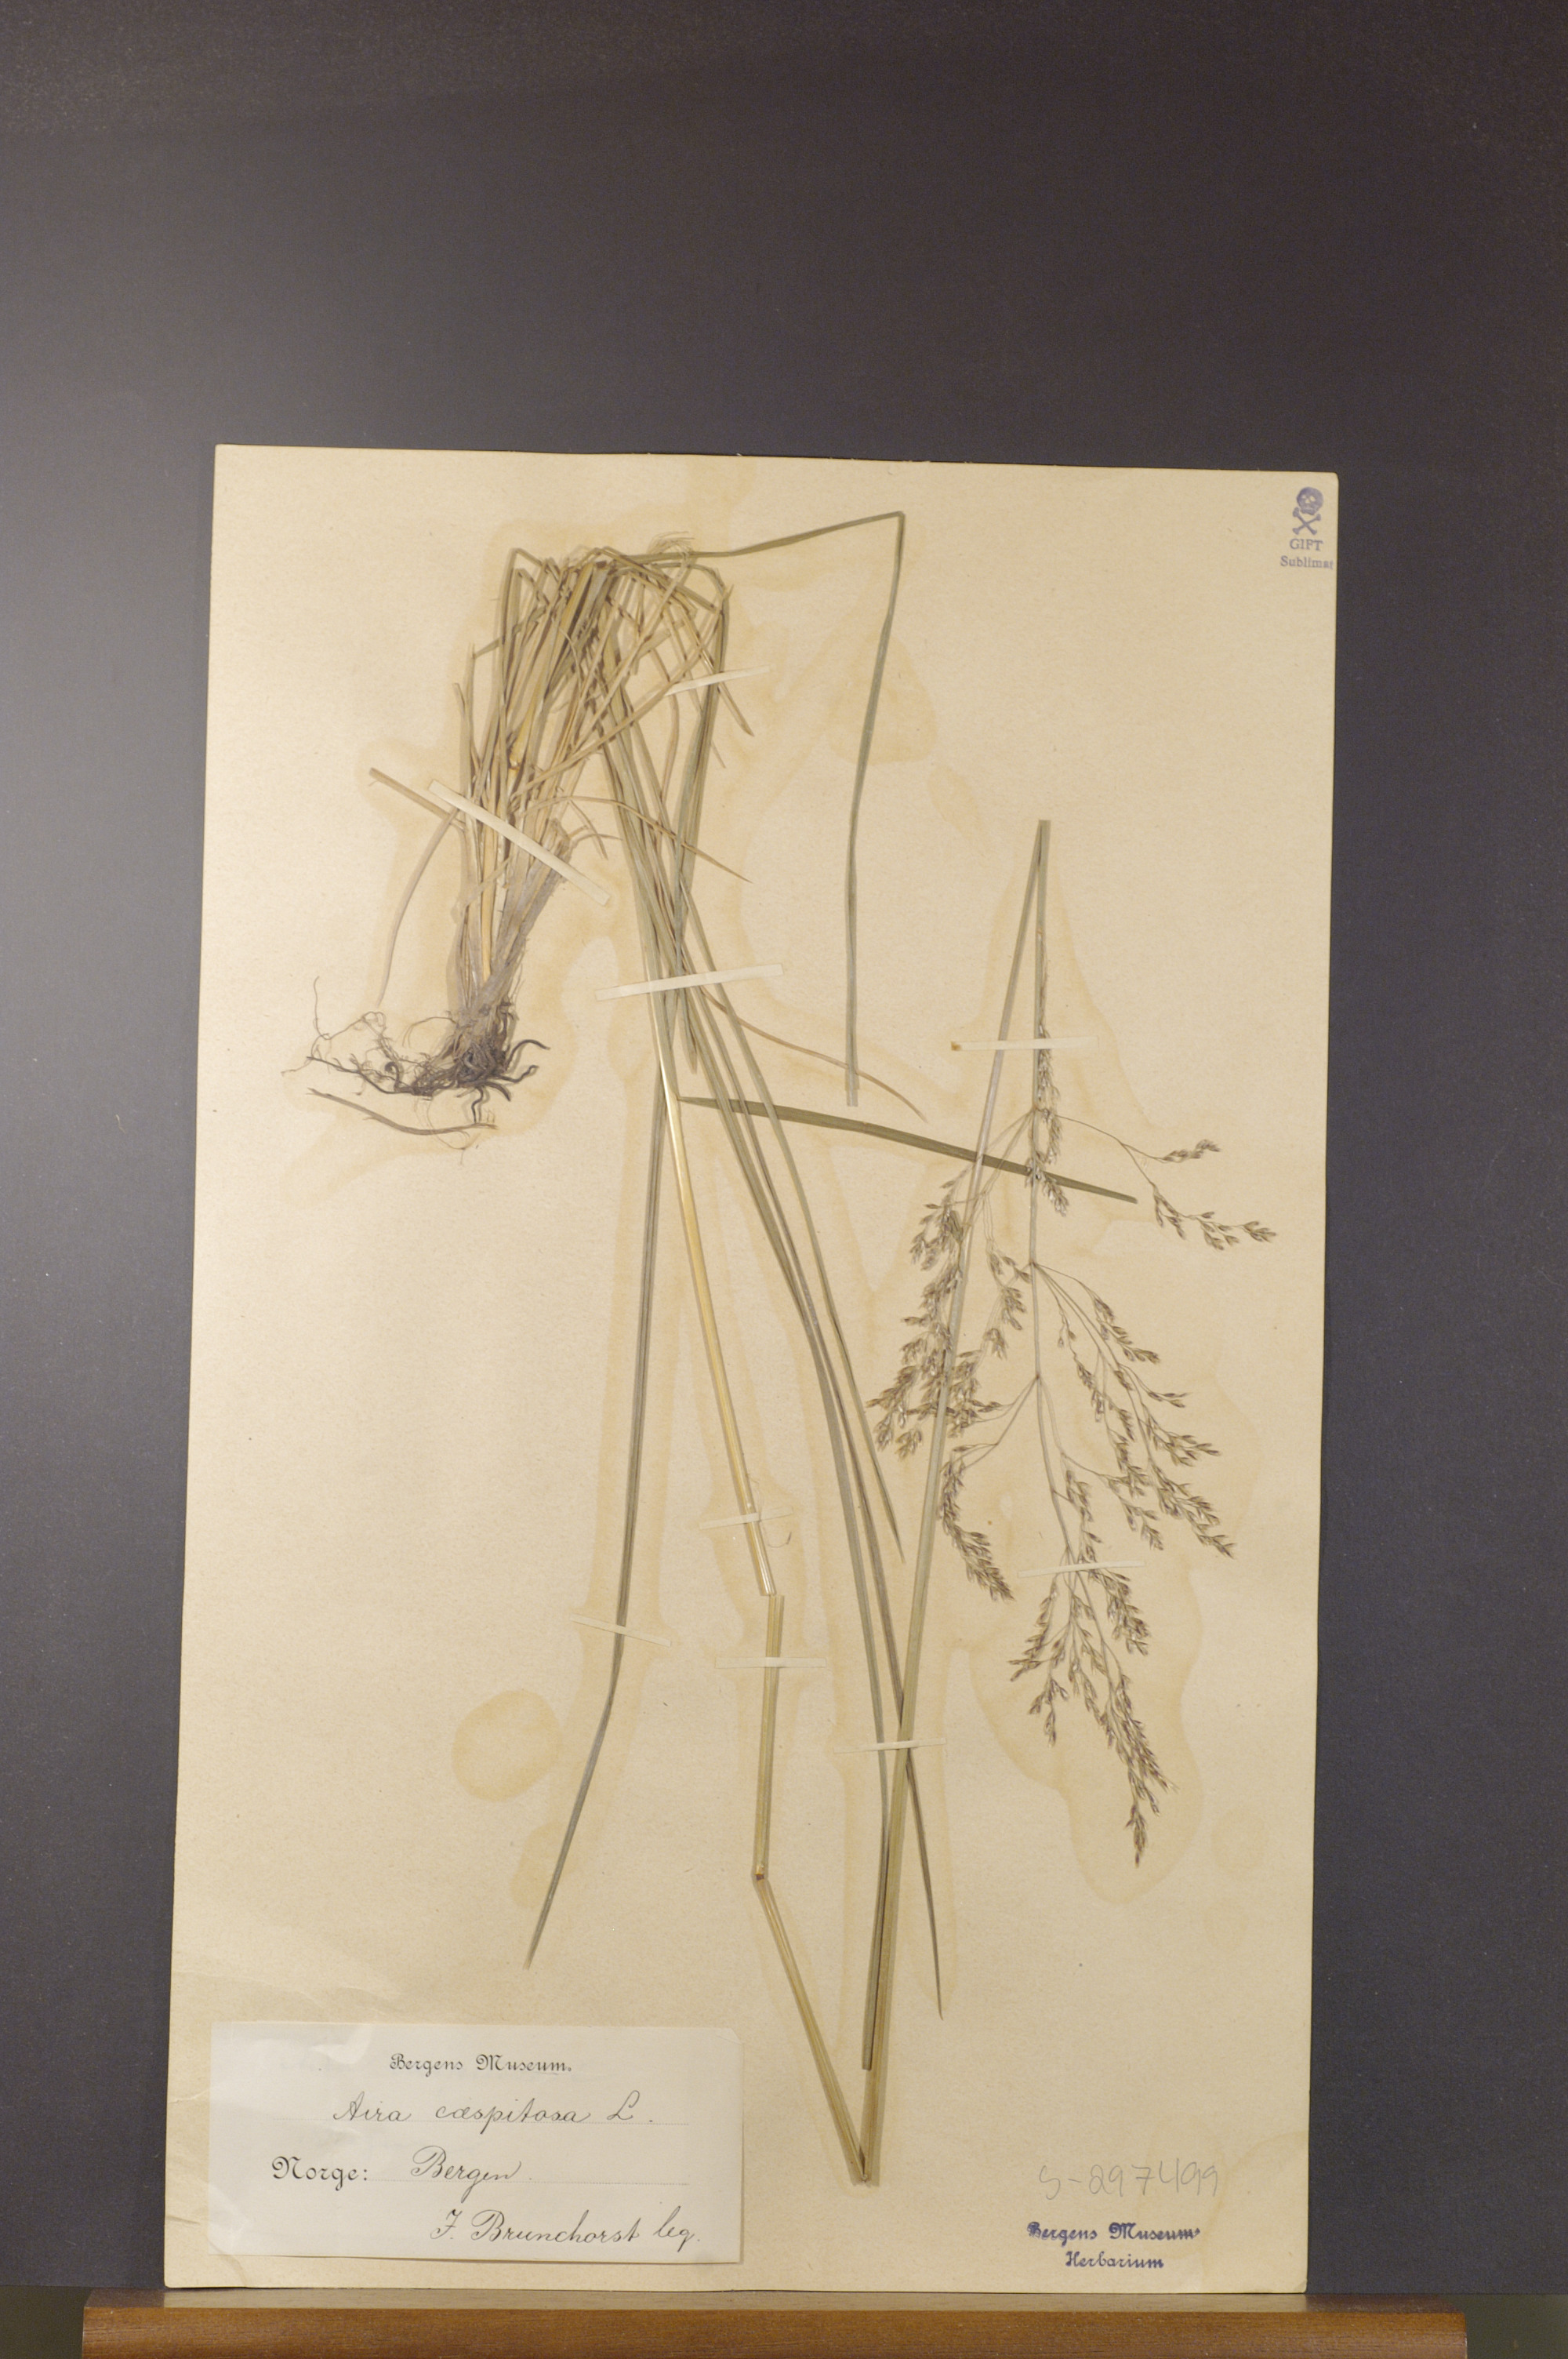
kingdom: Plantae
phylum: Tracheophyta
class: Liliopsida
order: Poales
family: Poaceae
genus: Deschampsia
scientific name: Deschampsia cespitosa
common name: Tufted hair-grass
